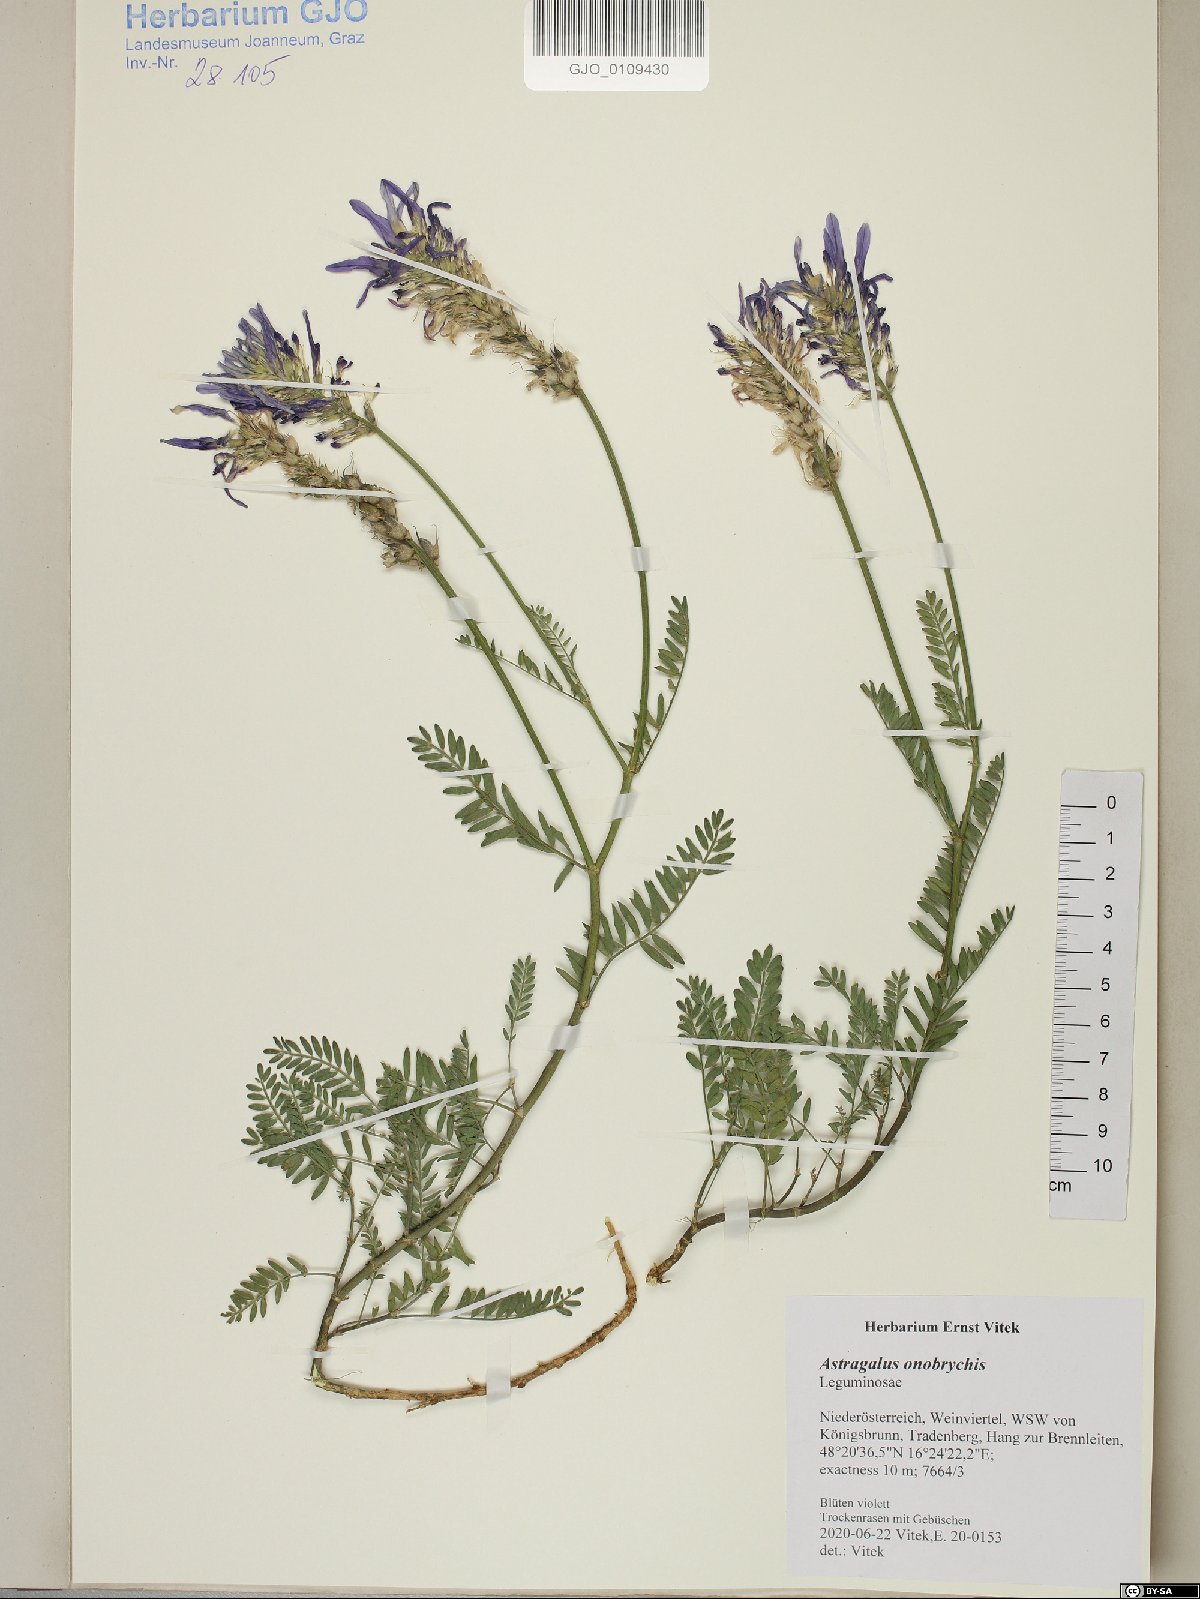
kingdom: Plantae
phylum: Tracheophyta
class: Magnoliopsida
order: Fabales
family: Fabaceae
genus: Astragalus
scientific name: Astragalus onobrychis
